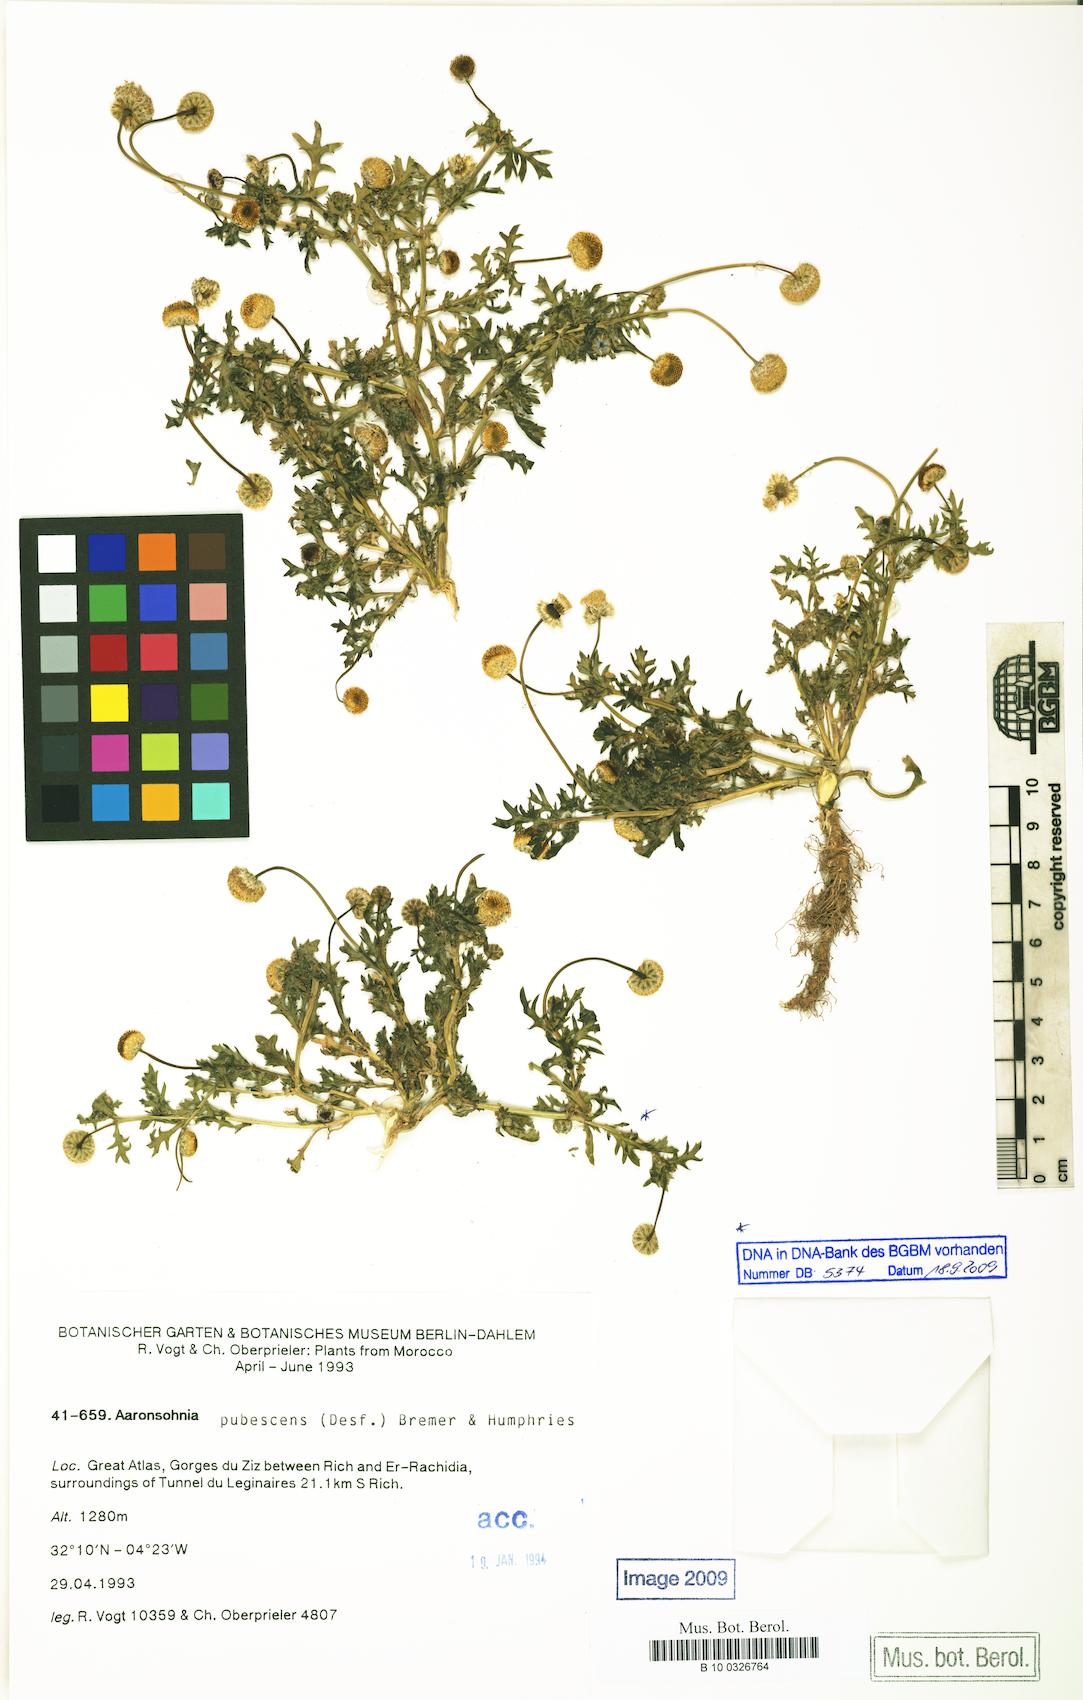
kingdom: Plantae
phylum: Tracheophyta
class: Magnoliopsida
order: Asterales
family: Asteraceae
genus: Otoglyphis
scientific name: Otoglyphis pubescens
